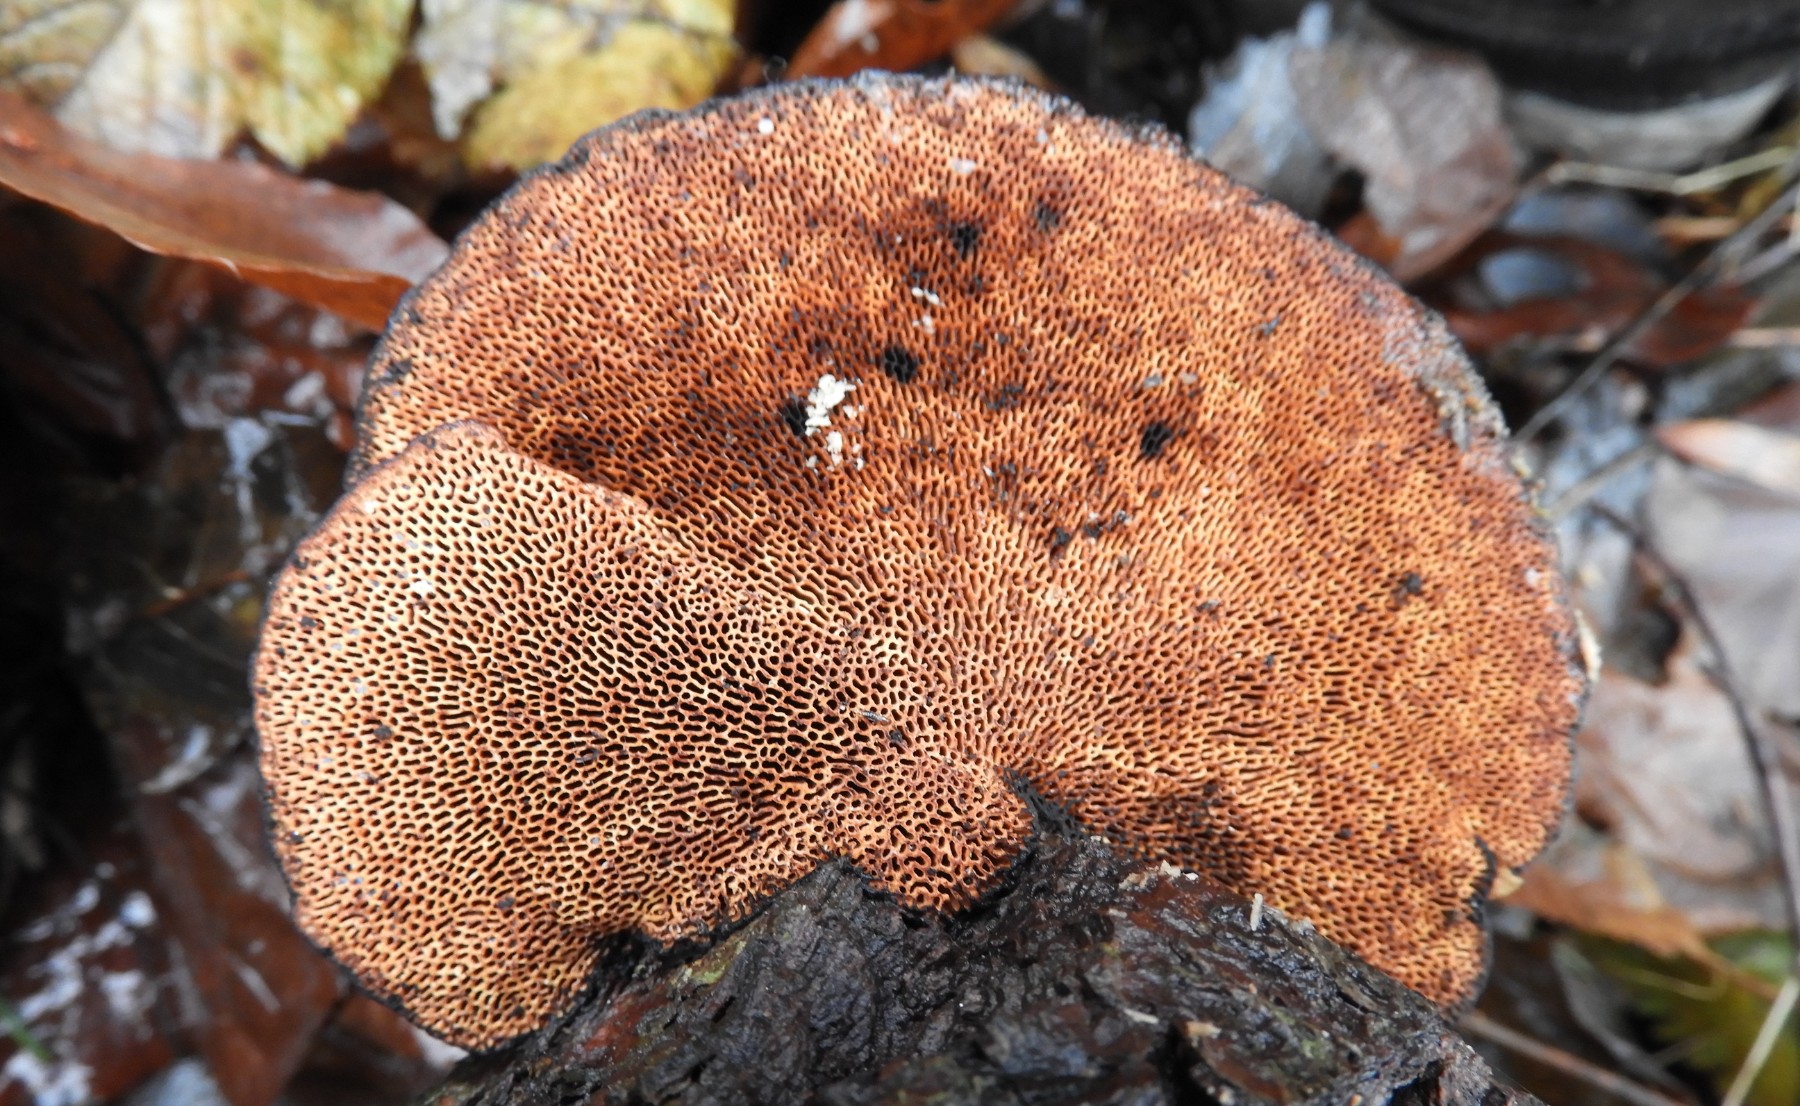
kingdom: Fungi
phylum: Basidiomycota
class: Agaricomycetes
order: Polyporales
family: Polyporaceae
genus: Daedaleopsis
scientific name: Daedaleopsis confragosa
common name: rødmende læderporesvamp
